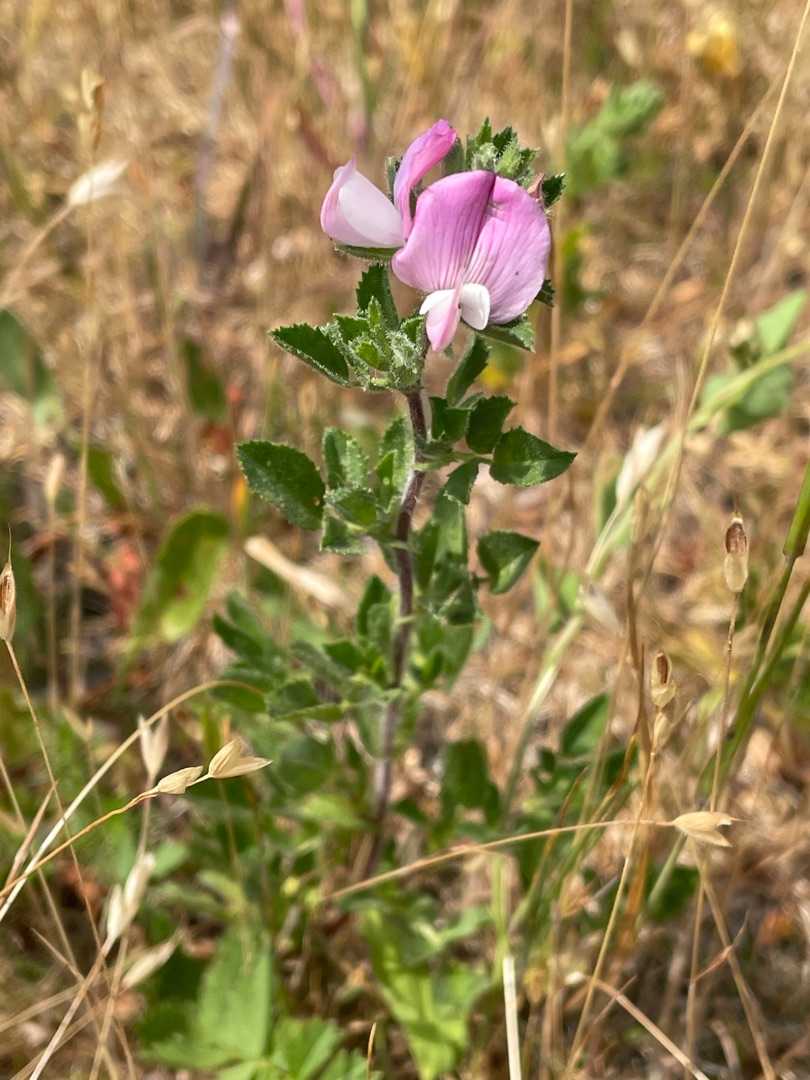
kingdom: Plantae
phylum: Tracheophyta
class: Magnoliopsida
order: Fabales
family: Fabaceae
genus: Ononis
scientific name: Ononis spinosa
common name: Mark-krageklo
